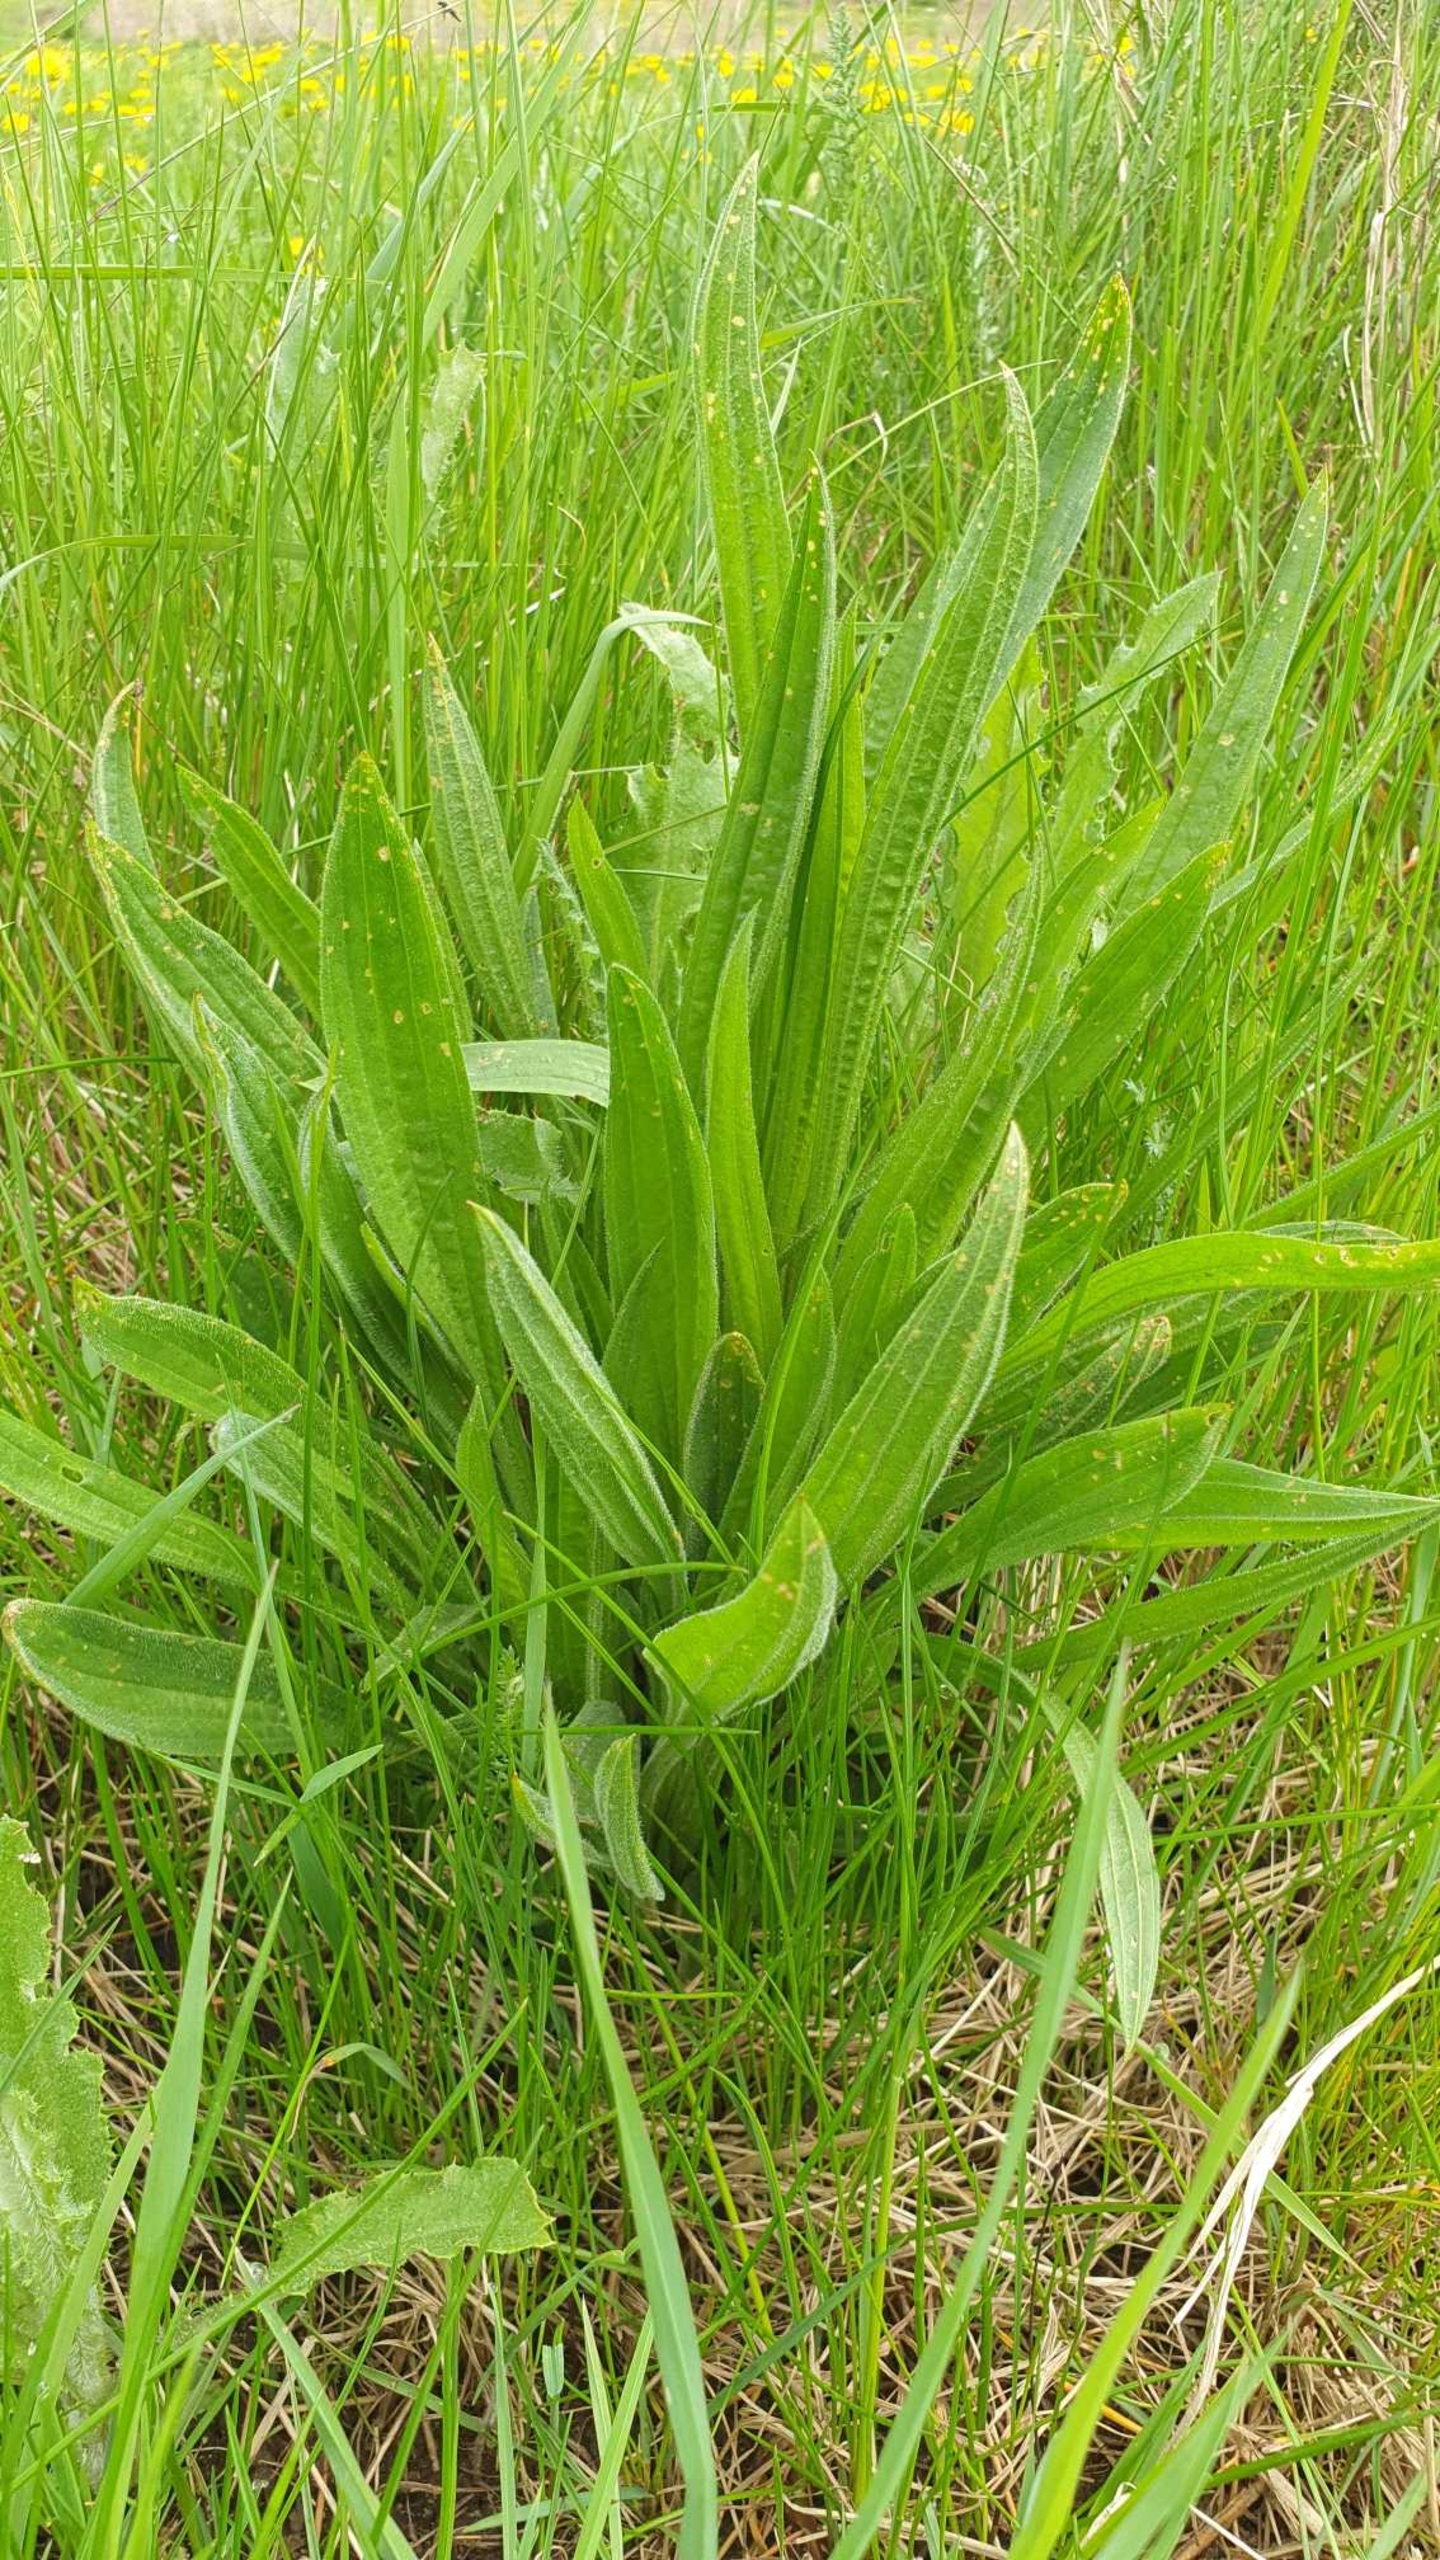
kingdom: Plantae
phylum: Tracheophyta
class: Magnoliopsida
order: Lamiales
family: Plantaginaceae
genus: Plantago
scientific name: Plantago lanceolata
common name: Lancet-vejbred
